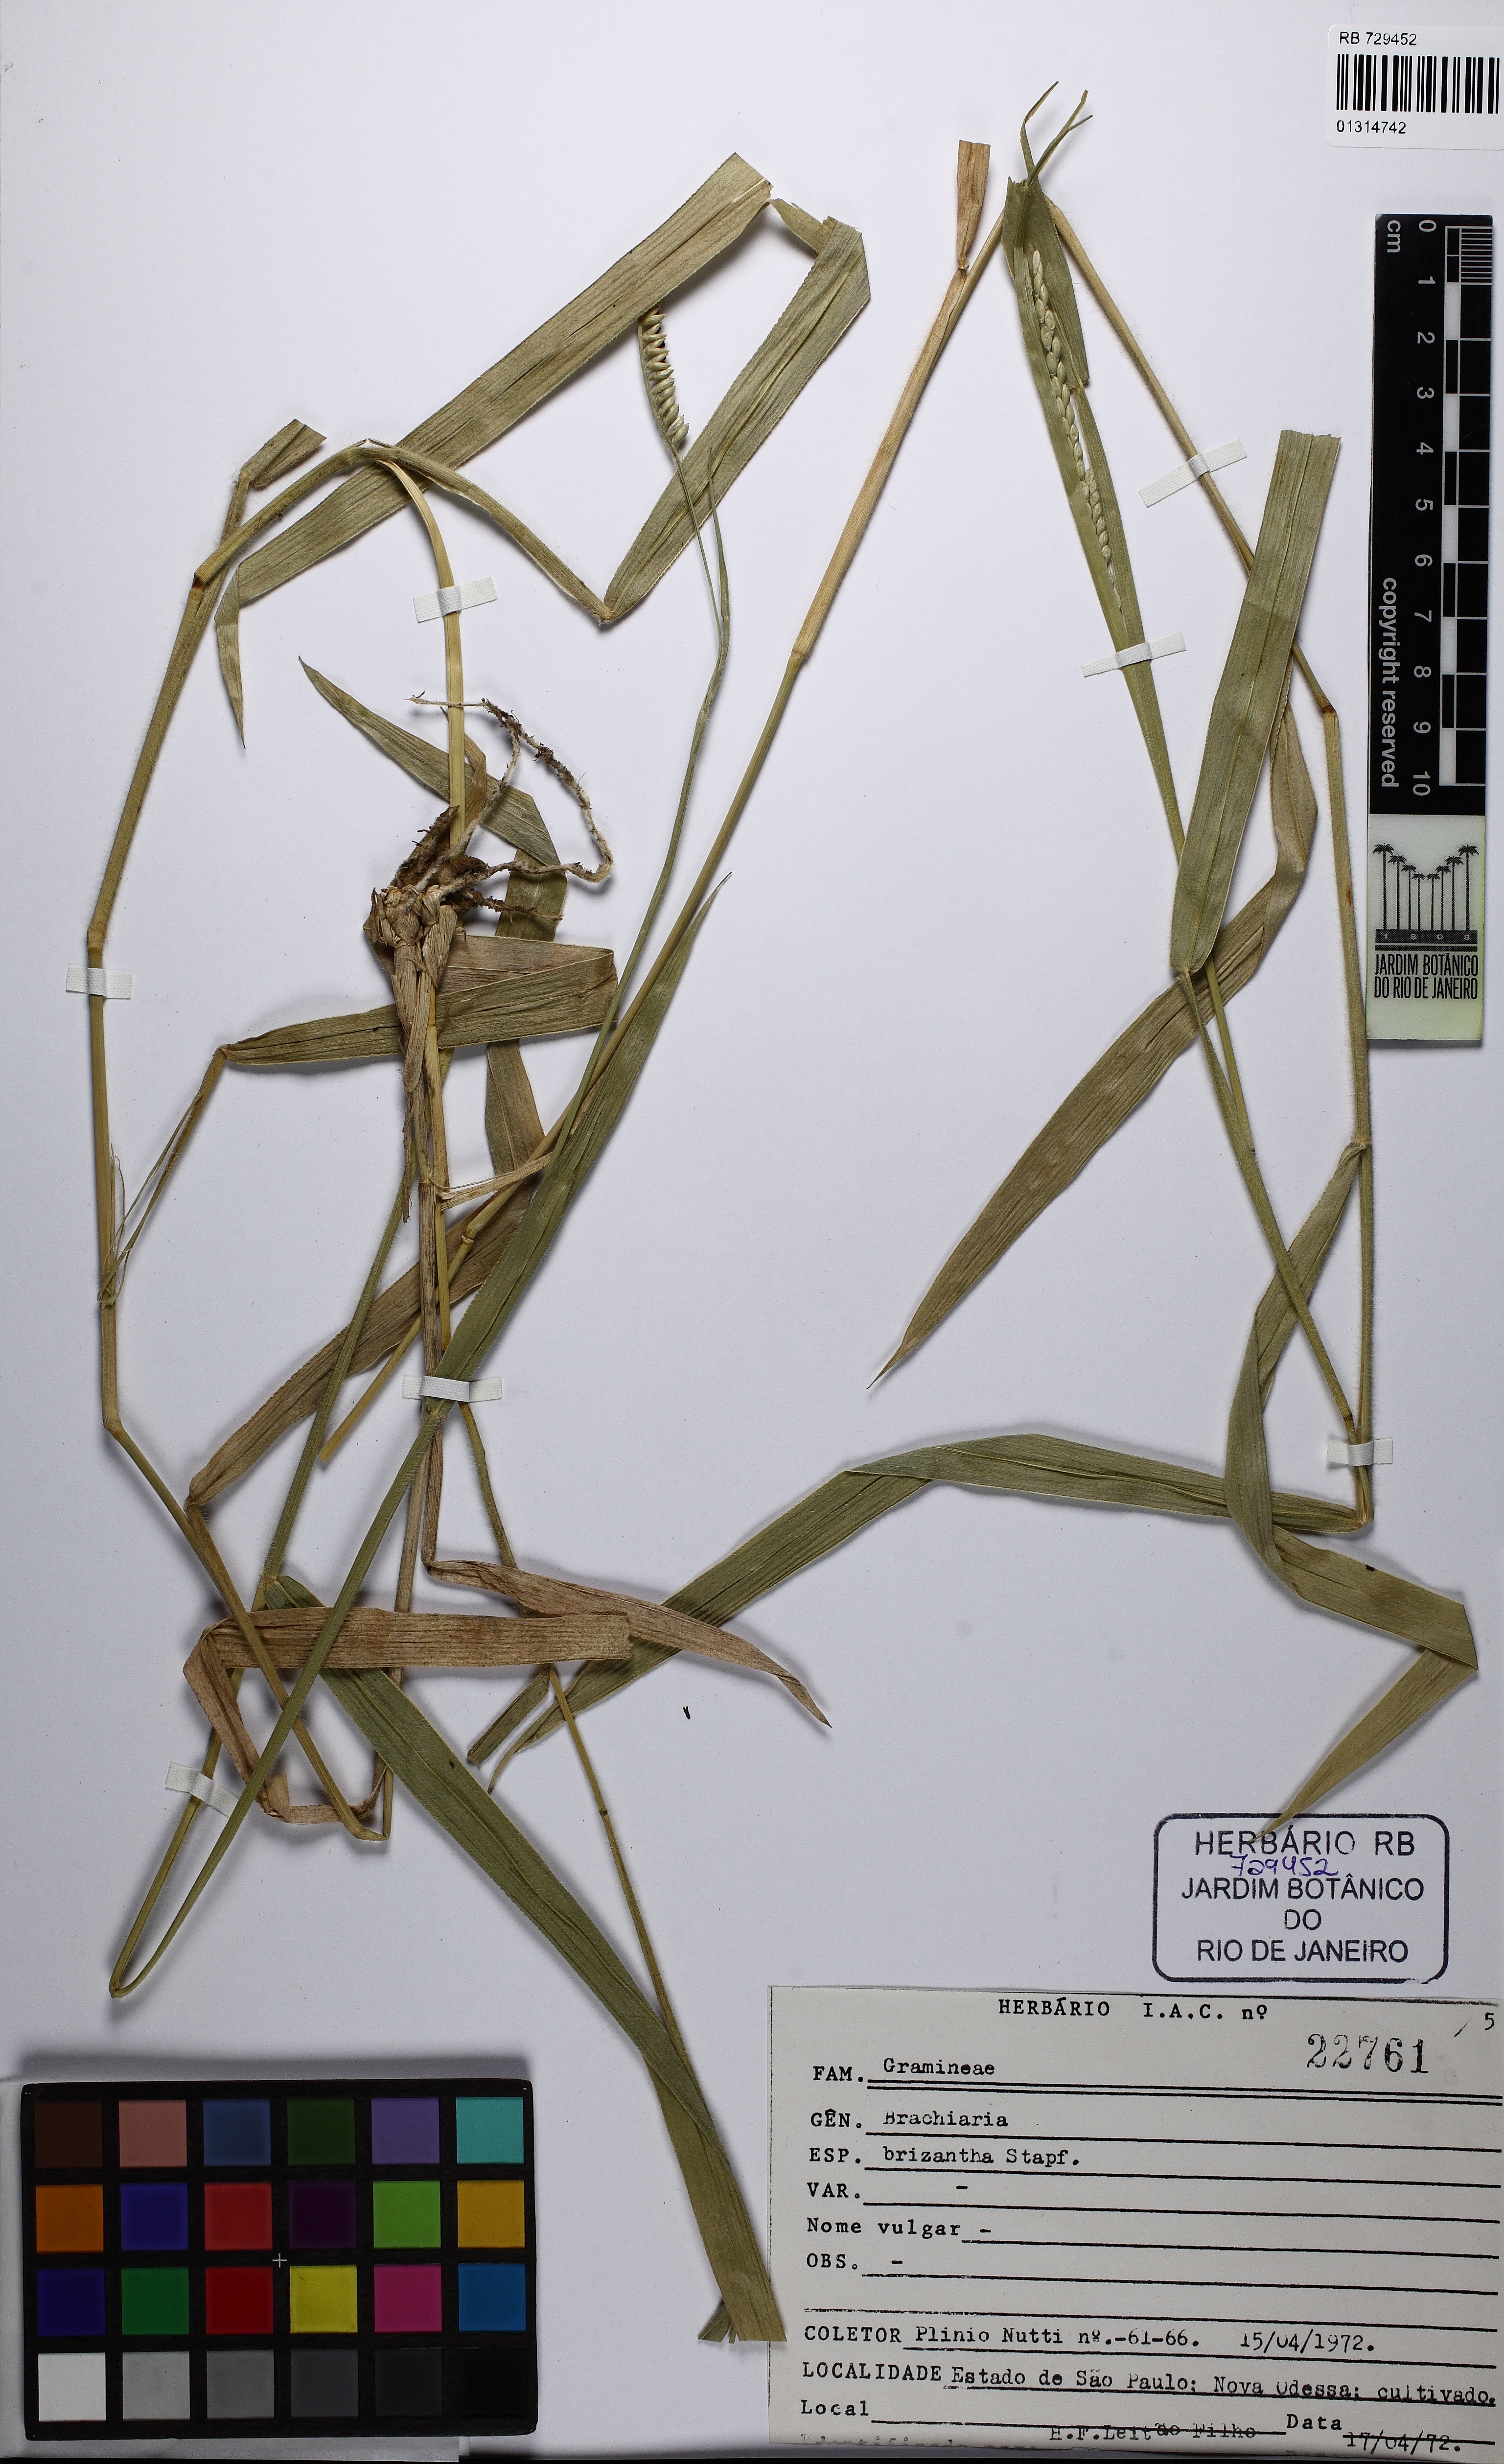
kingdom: Plantae
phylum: Tracheophyta
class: Liliopsida
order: Poales
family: Poaceae
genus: Urochloa
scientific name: Urochloa brizantha
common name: Palisade signalgrass
